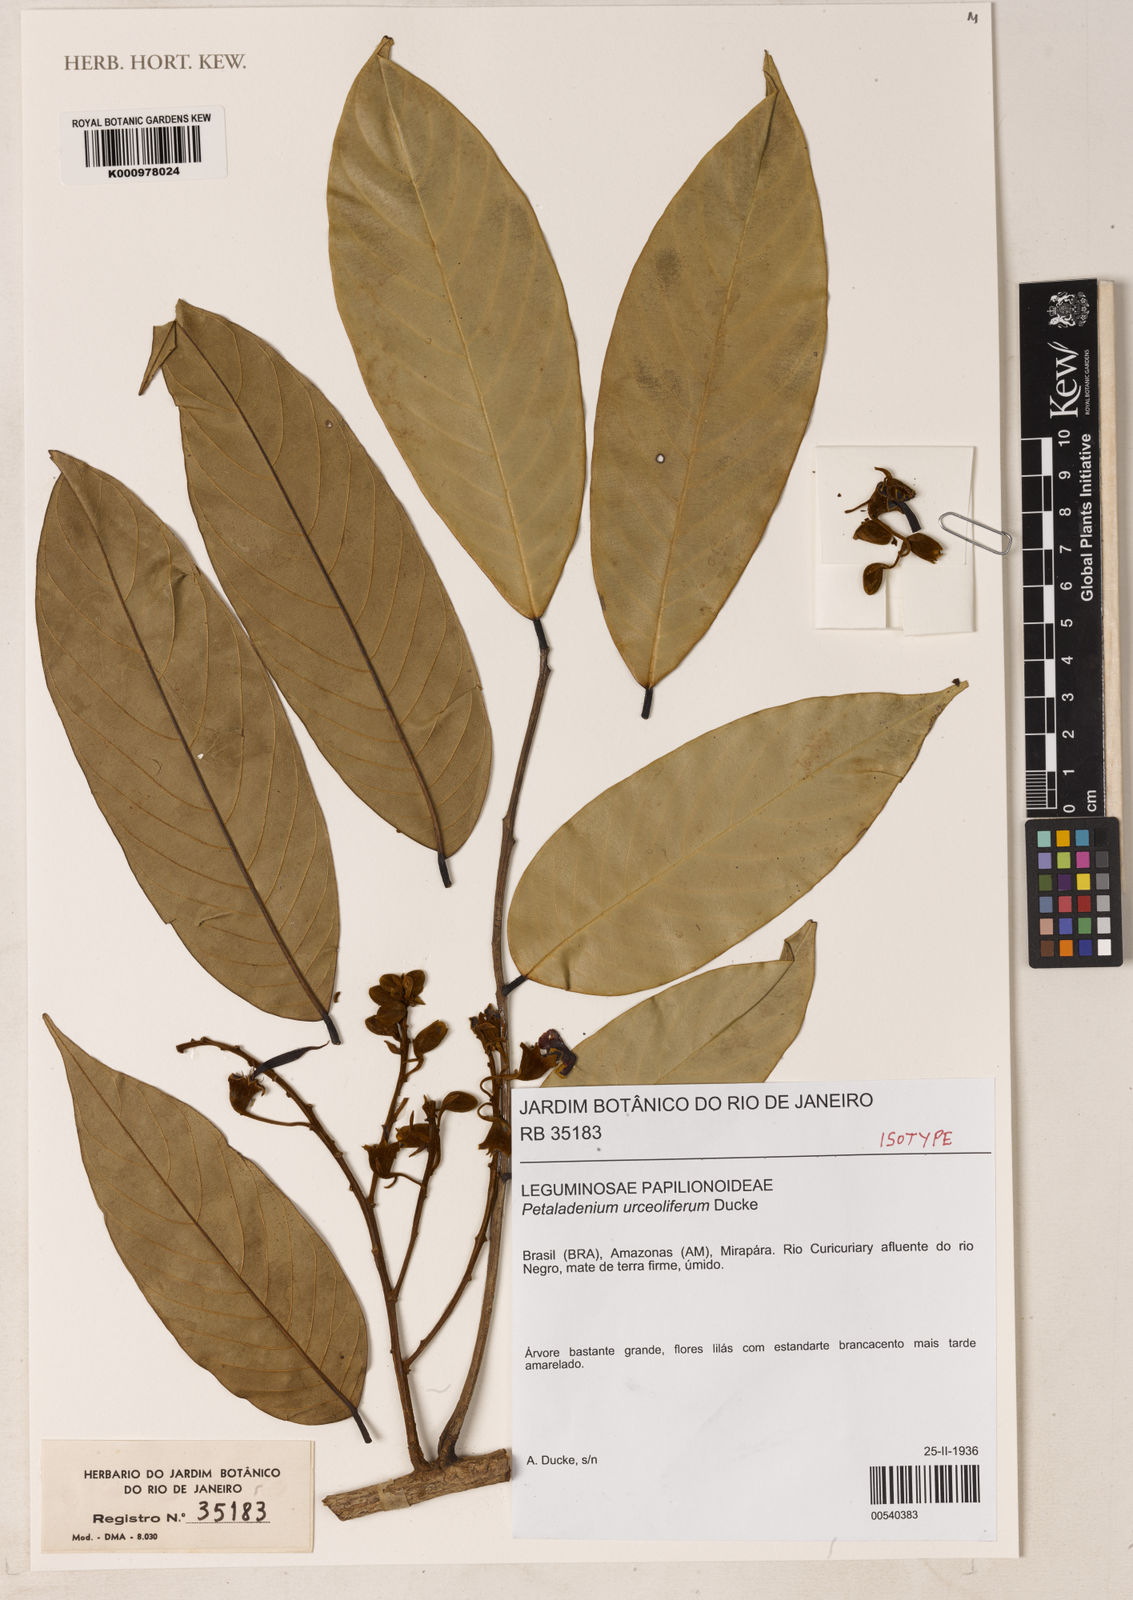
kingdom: Plantae
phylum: Tracheophyta
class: Magnoliopsida
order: Fabales
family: Fabaceae
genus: Petaladenium
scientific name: Petaladenium urceoliferum
